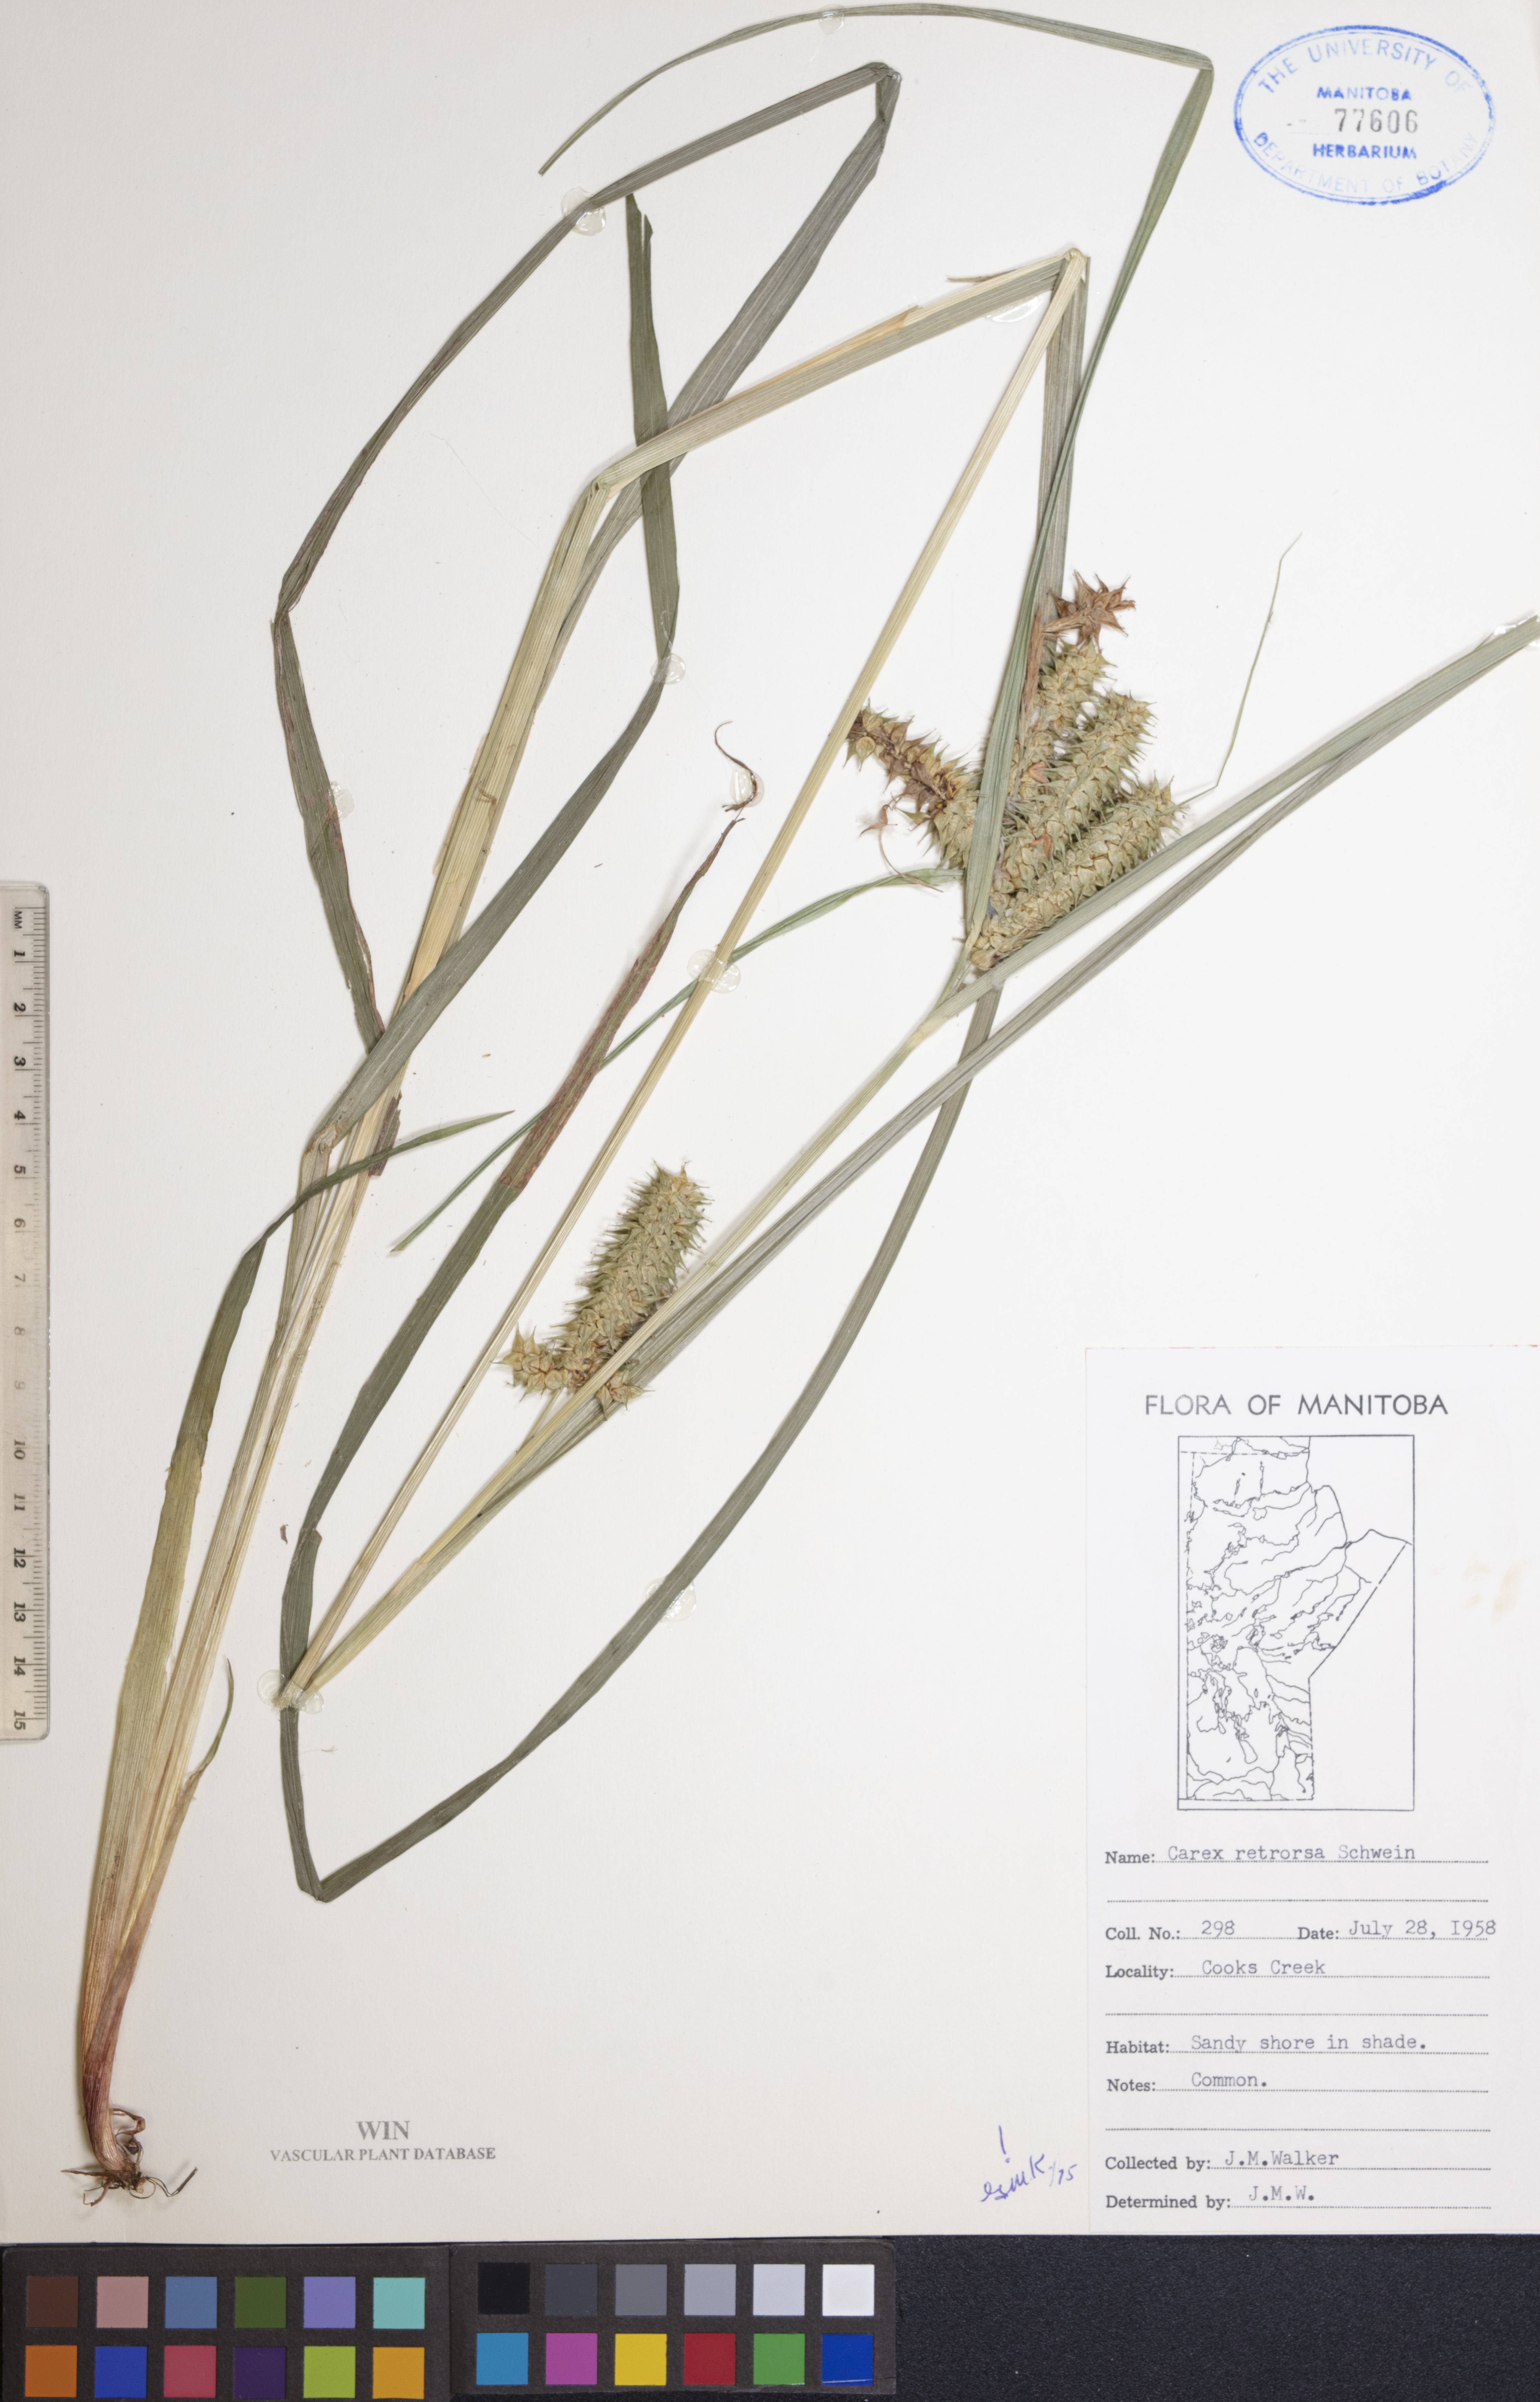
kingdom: Plantae
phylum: Tracheophyta
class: Liliopsida
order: Poales
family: Cyperaceae
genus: Carex
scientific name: Carex retrorsa
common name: Knot-sheath sedge
